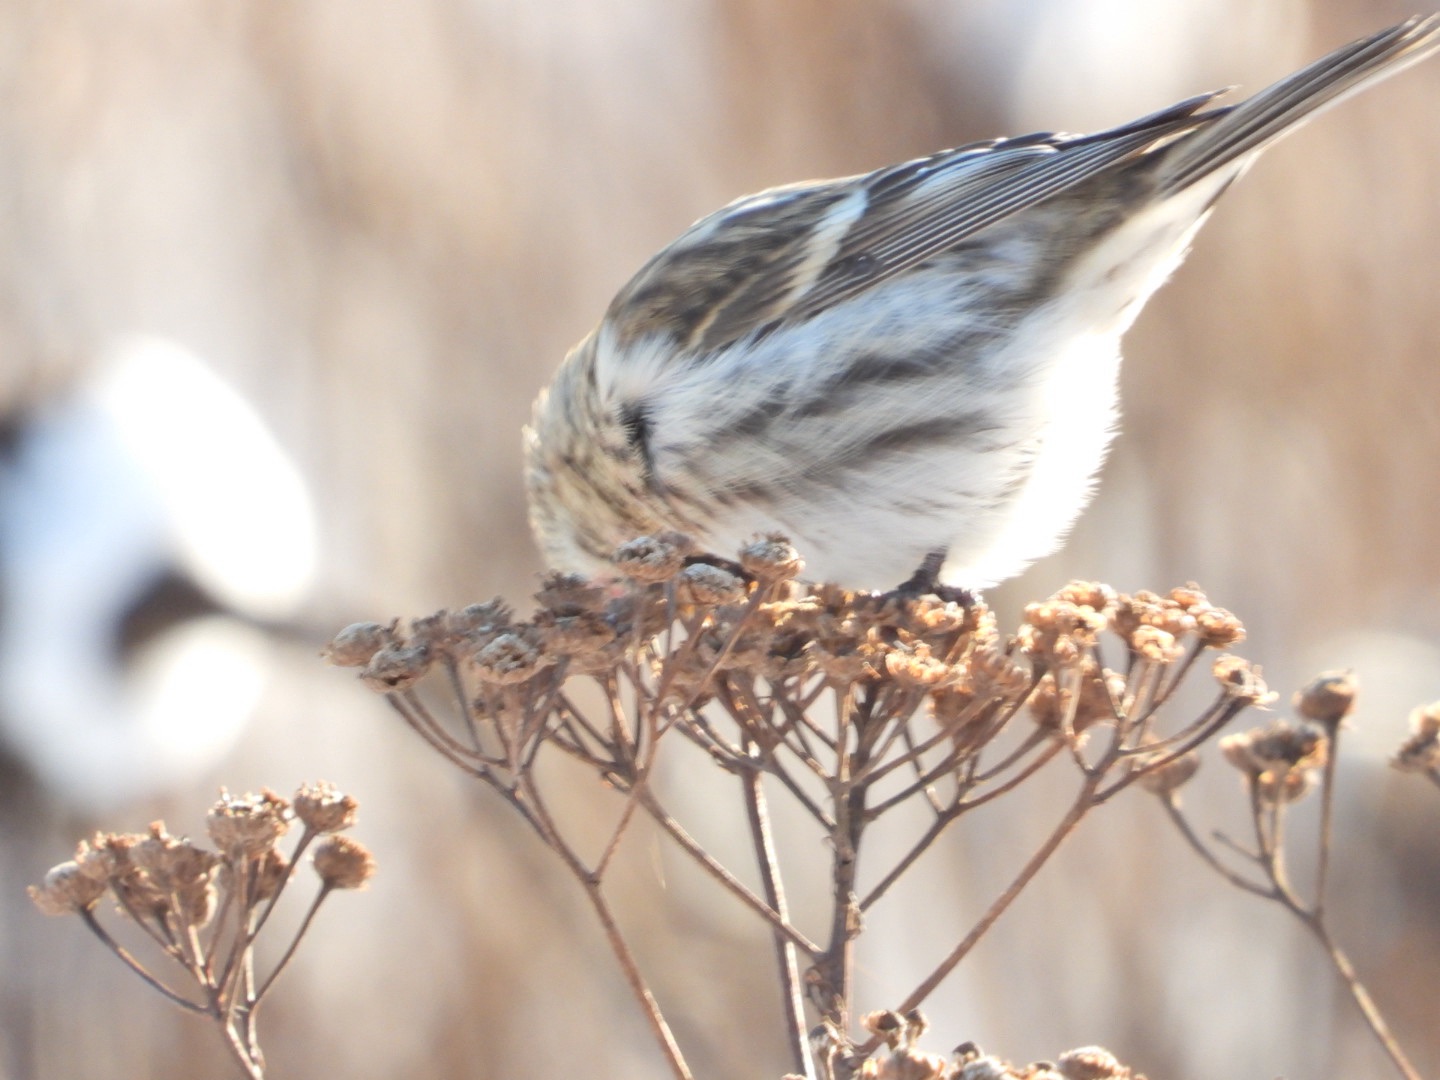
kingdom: Animalia
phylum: Chordata
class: Aves
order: Passeriformes
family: Fringillidae
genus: Acanthis
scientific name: Acanthis flammea
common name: Nordlig gråsisken
